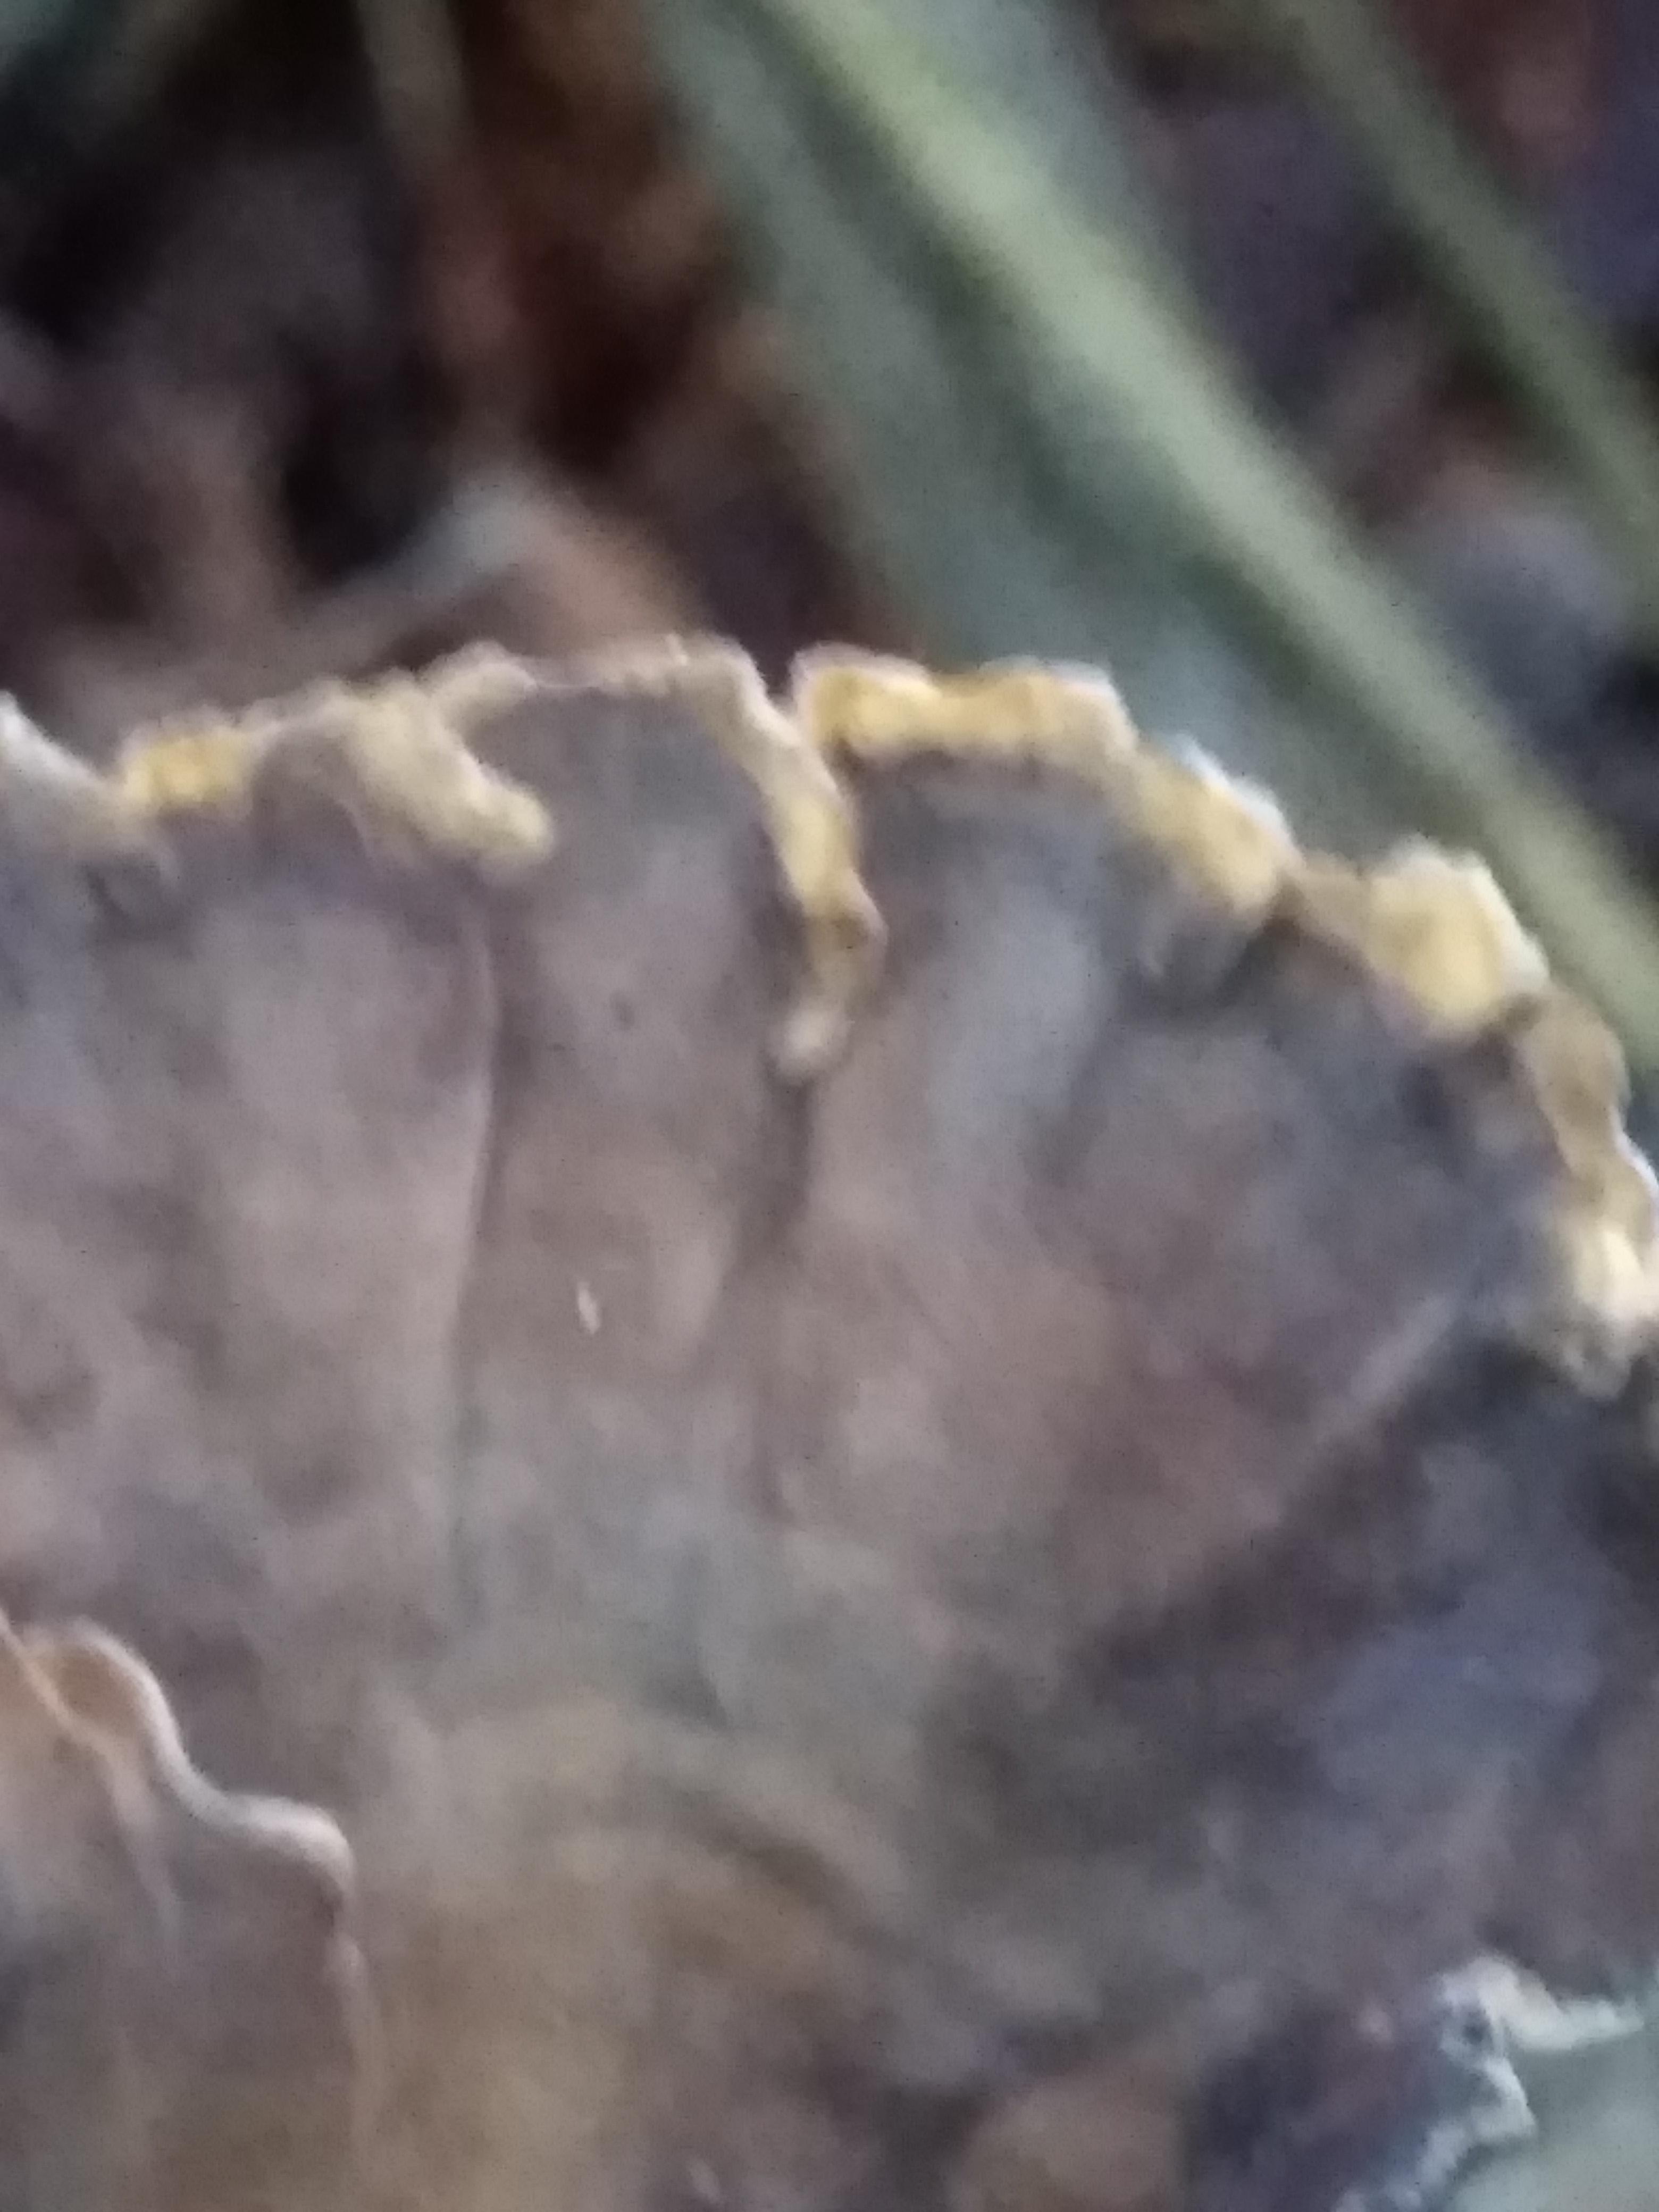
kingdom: Fungi
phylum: Basidiomycota
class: Agaricomycetes
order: Russulales
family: Stereaceae
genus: Stereum
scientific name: Stereum subtomentosum
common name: smuk lædersvamp
